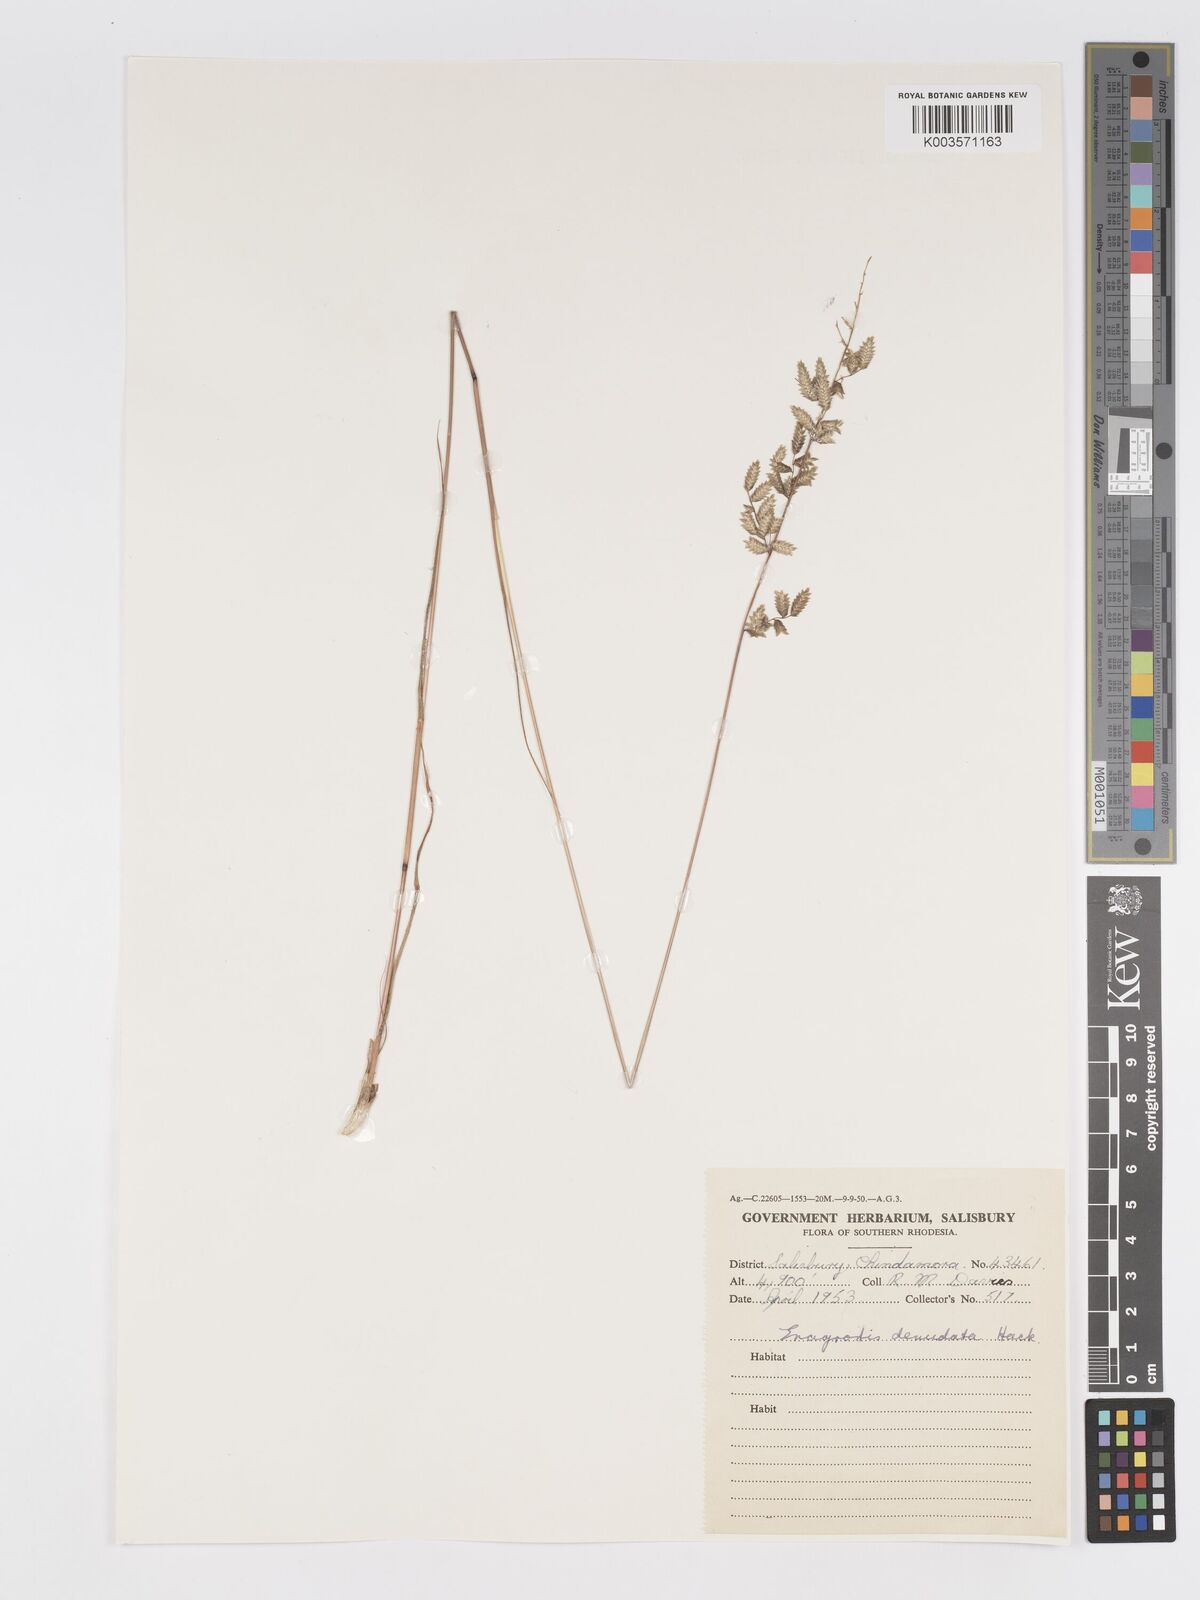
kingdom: Plantae
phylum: Tracheophyta
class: Liliopsida
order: Poales
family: Poaceae
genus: Eragrostis
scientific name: Eragrostis nindensis
